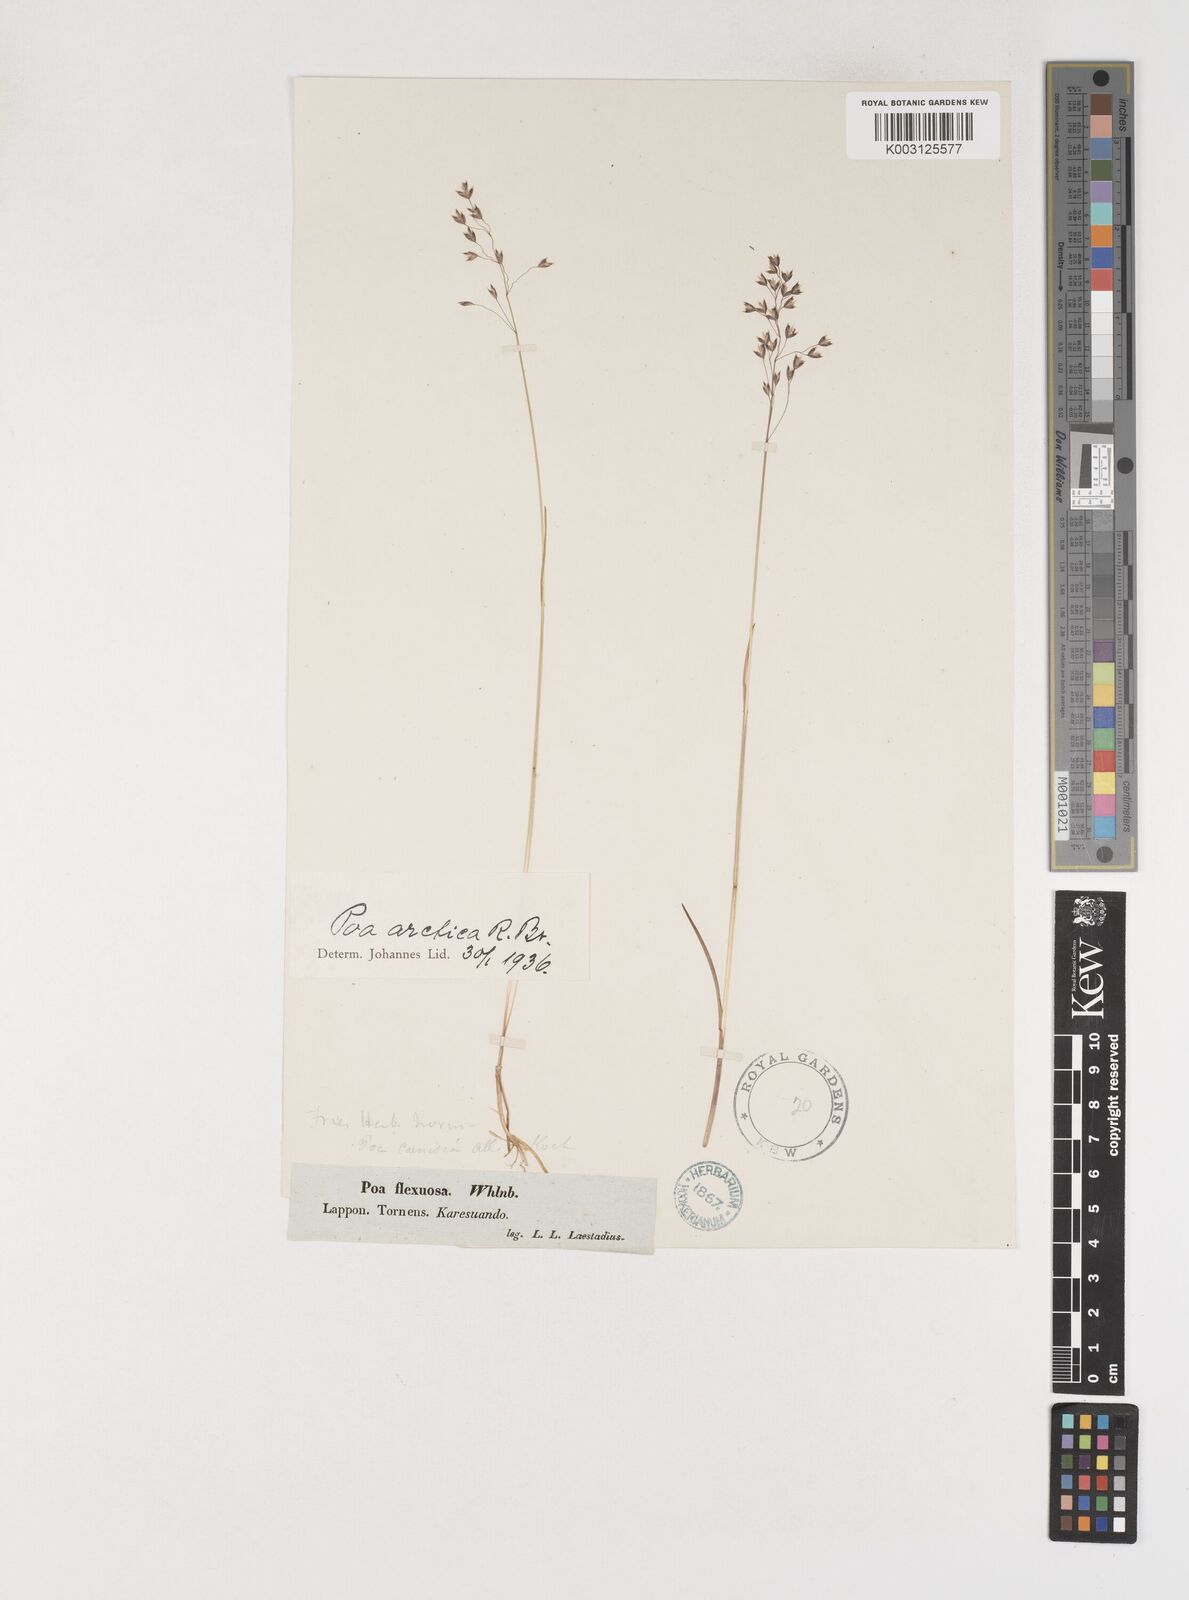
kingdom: Plantae
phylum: Tracheophyta
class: Liliopsida
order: Poales
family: Poaceae
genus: Poa
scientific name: Poa arctica
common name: Arctic bluegrass
